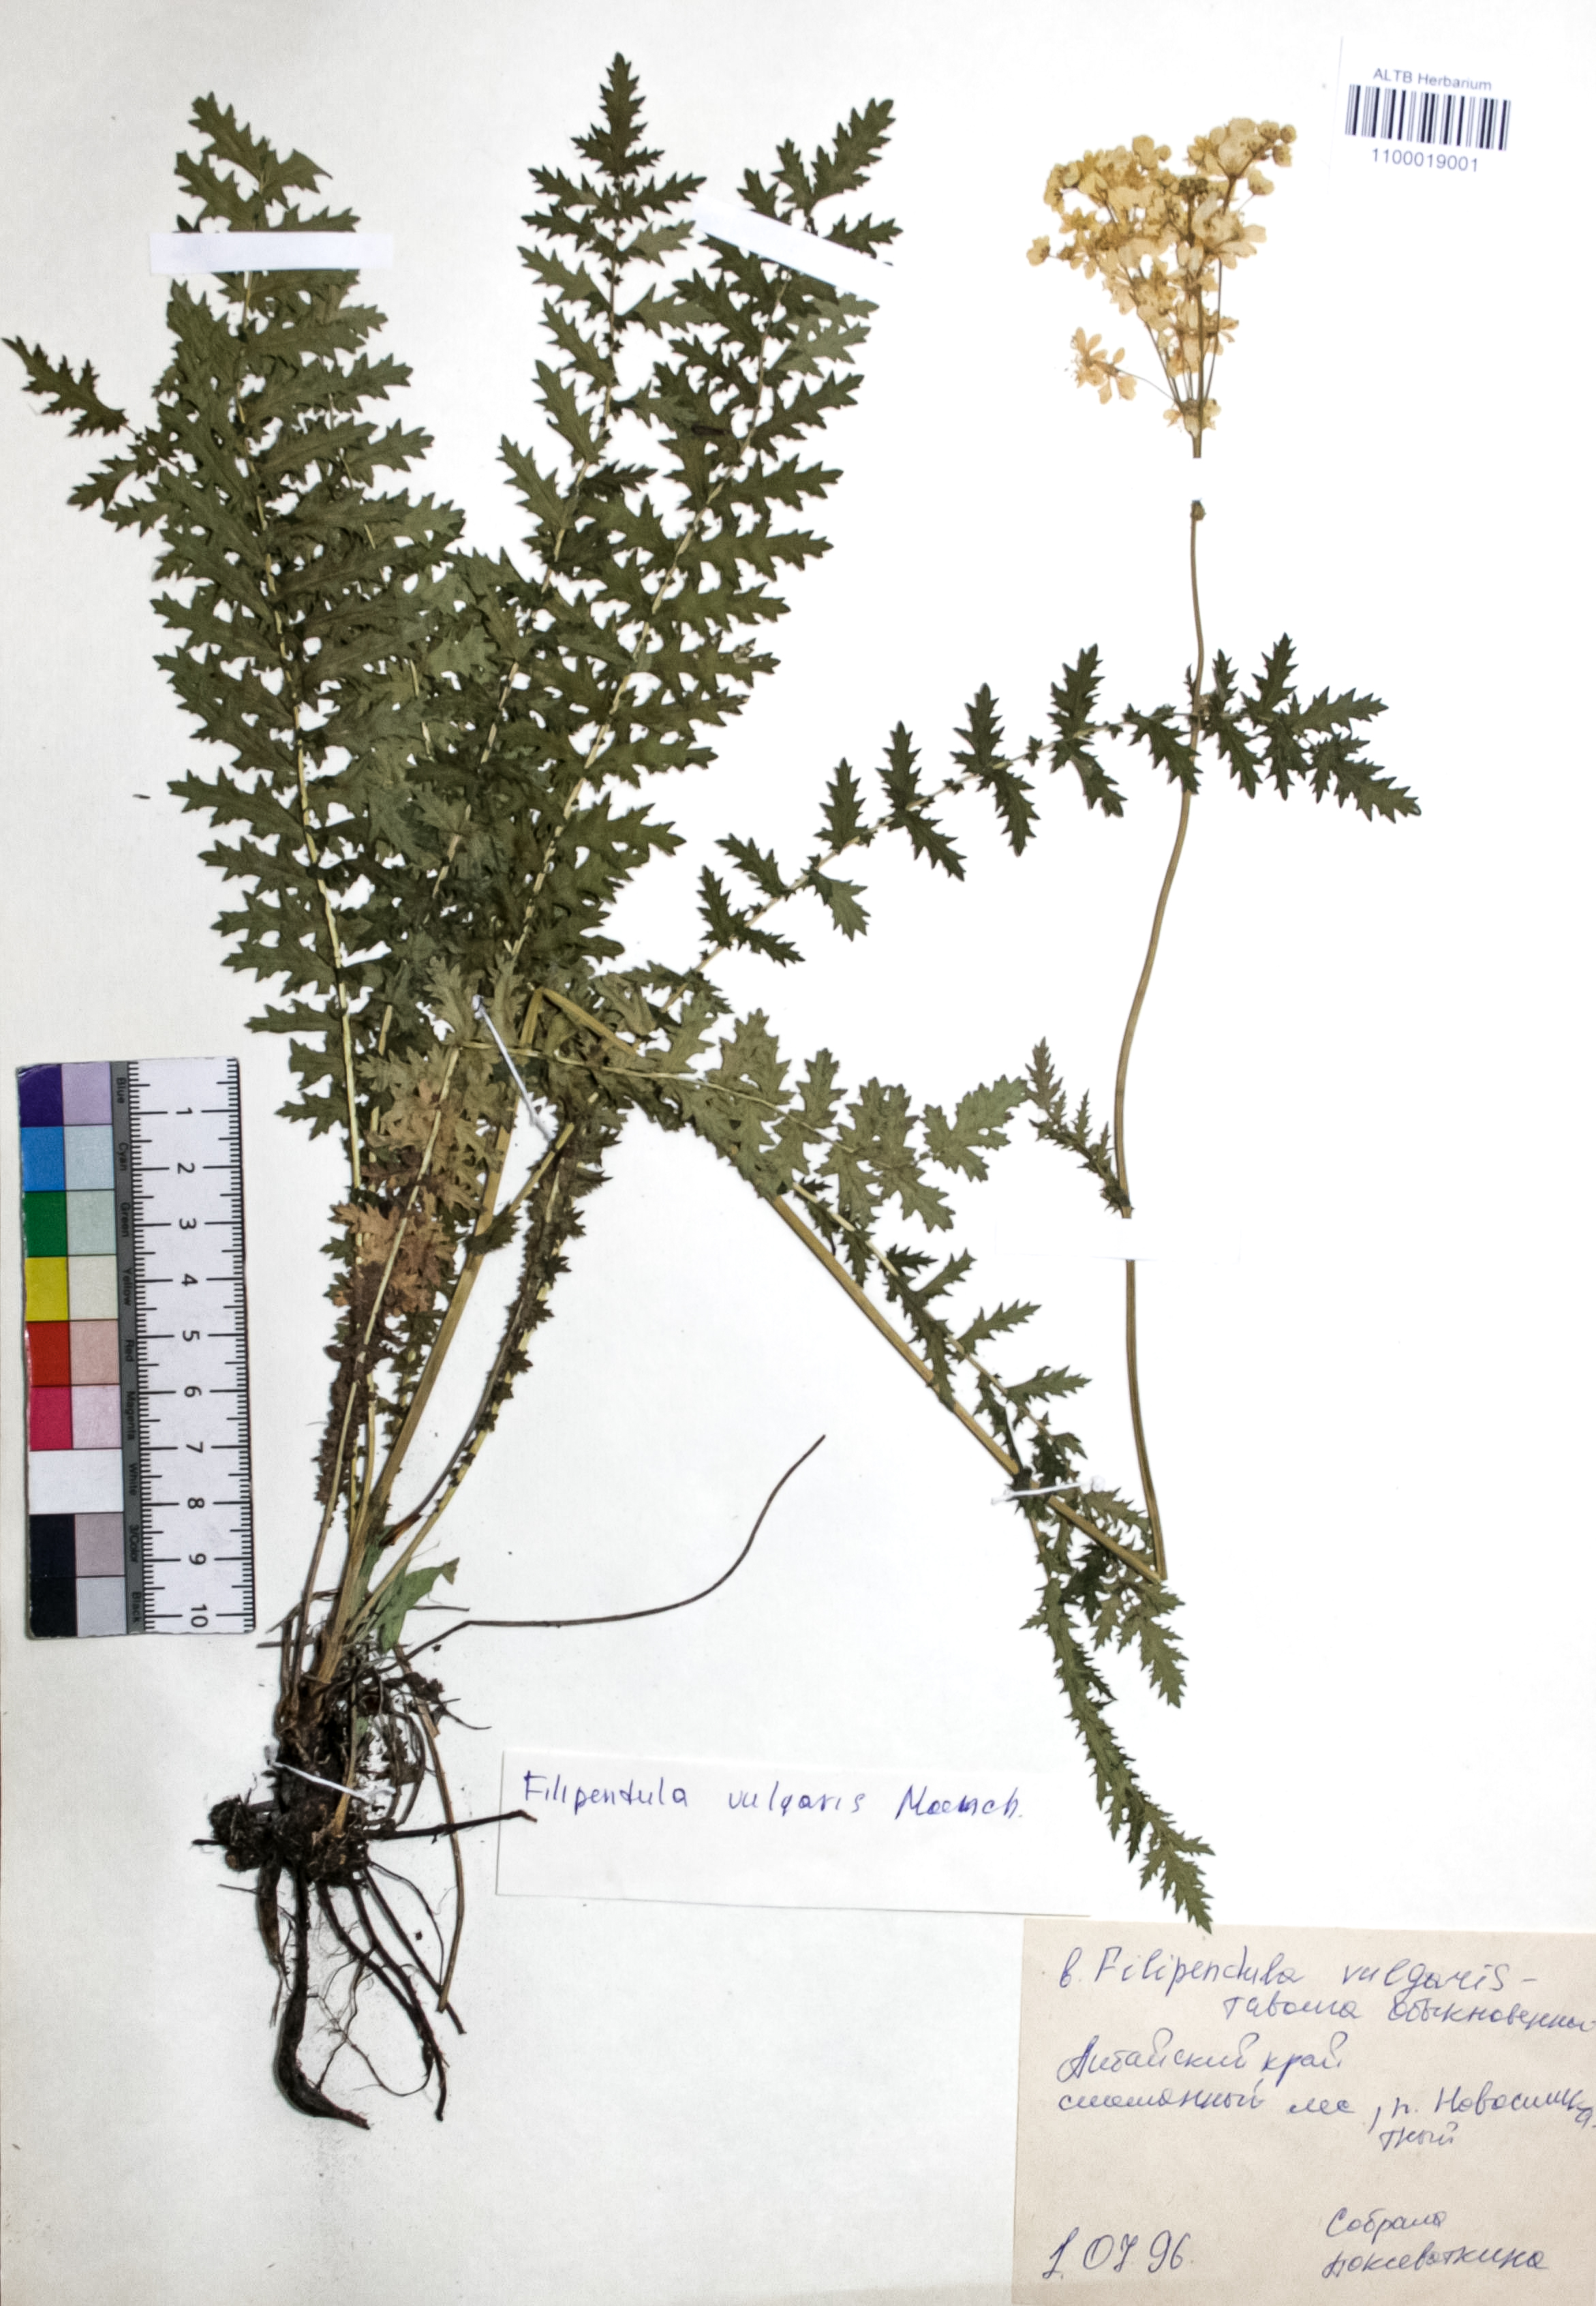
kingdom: Plantae
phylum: Tracheophyta
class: Magnoliopsida
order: Rosales
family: Rosaceae
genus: Filipendula
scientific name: Filipendula vulgaris
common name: Dropwort
